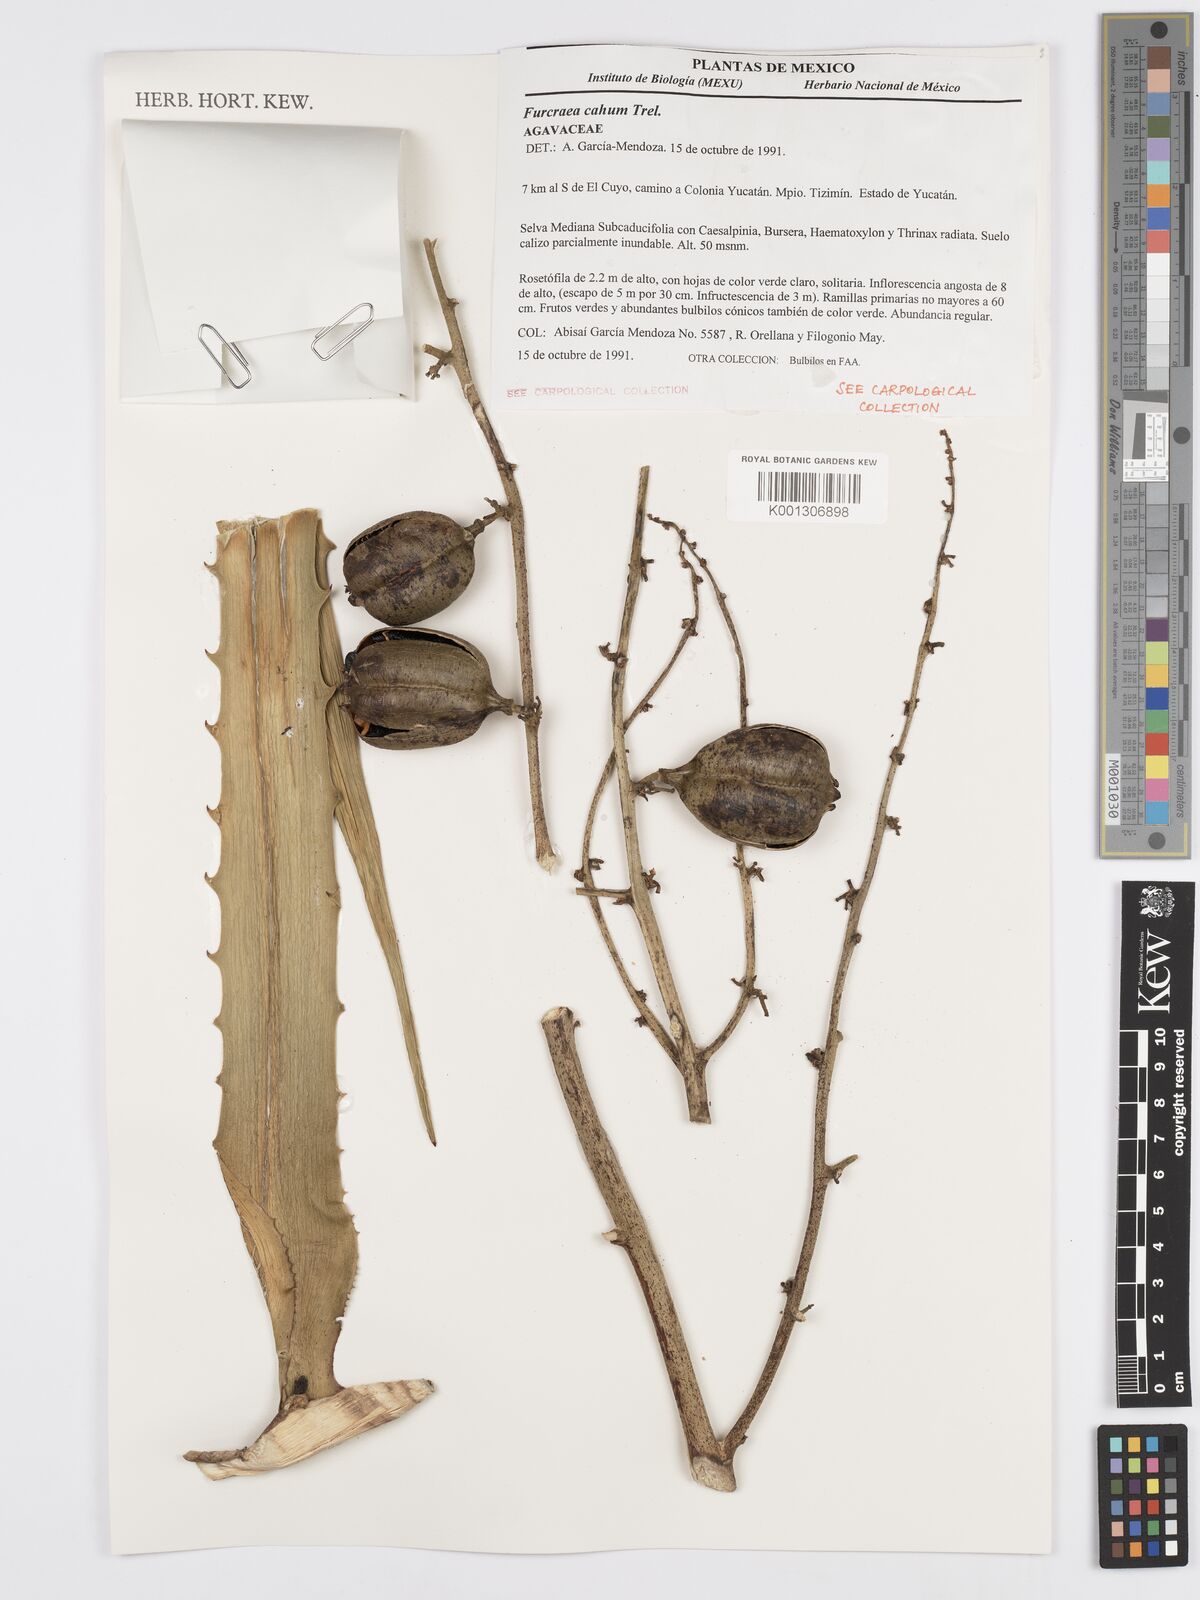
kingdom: Plantae
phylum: Tracheophyta
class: Liliopsida
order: Asparagales
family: Asparagaceae
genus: Furcraea
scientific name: Furcraea hexapetala
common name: Cuban-hemp
